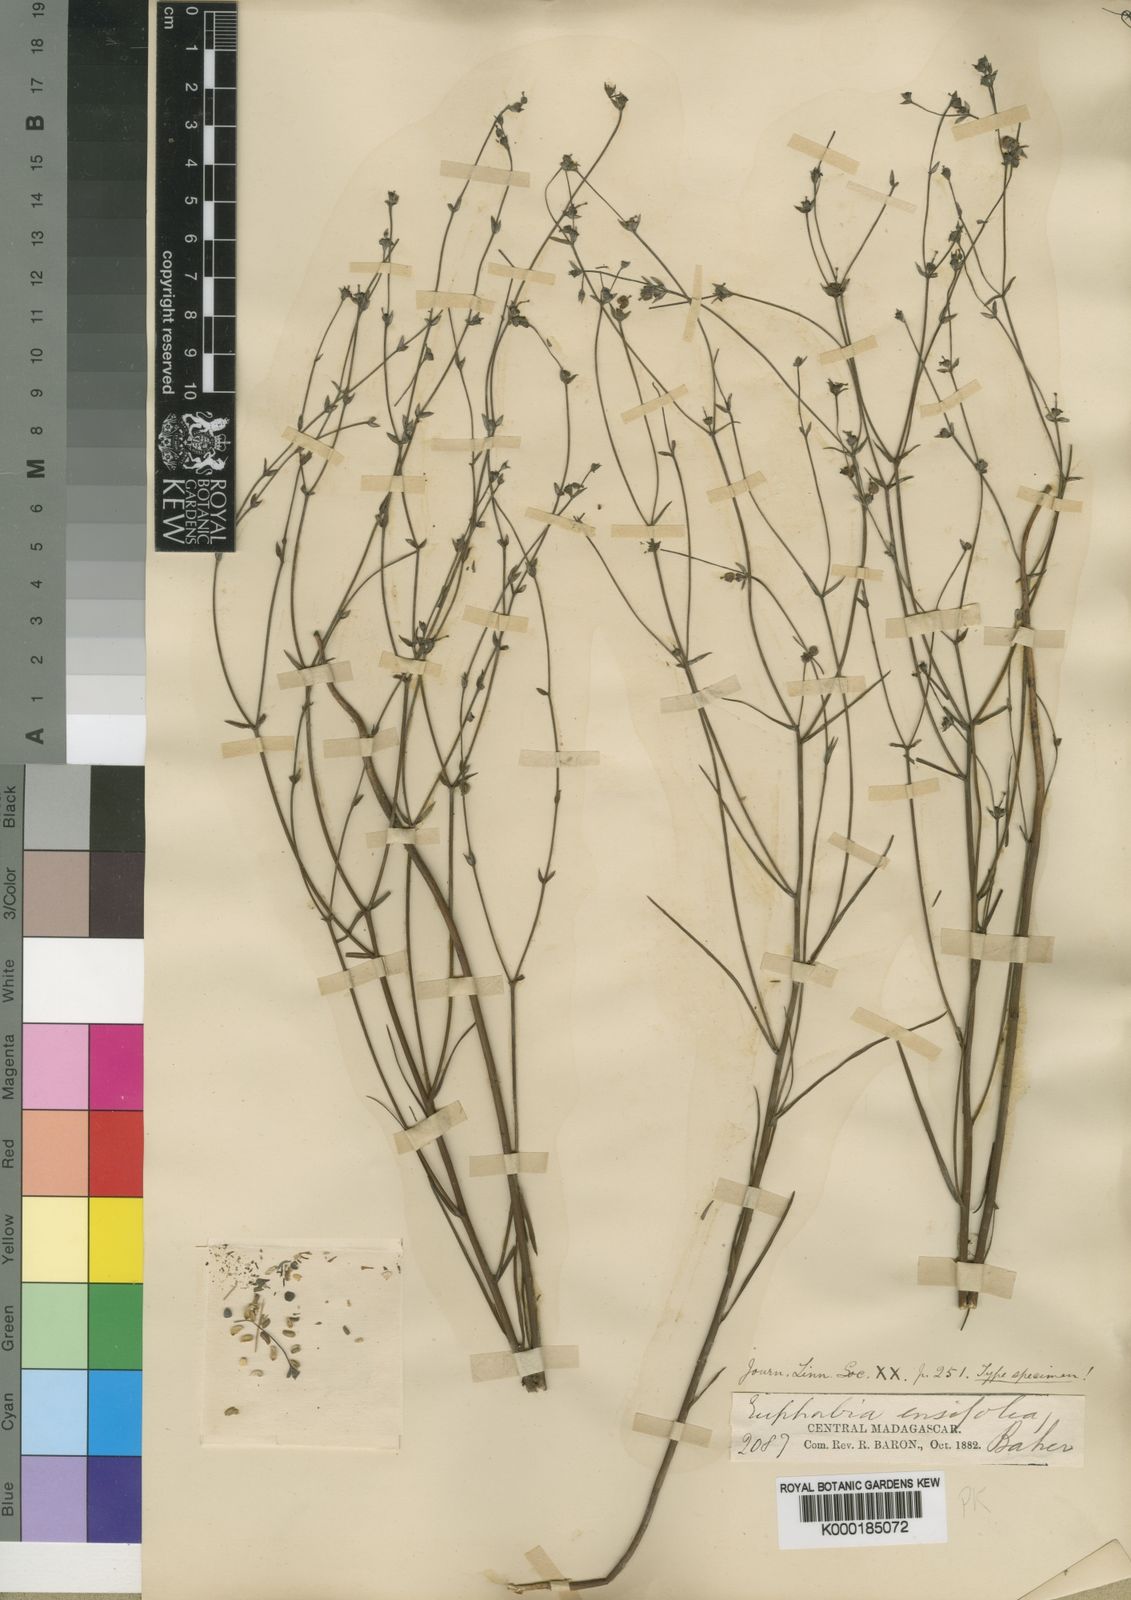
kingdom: Plantae
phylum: Tracheophyta
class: Magnoliopsida
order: Malpighiales
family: Euphorbiaceae
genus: Euphorbia
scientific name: Euphorbia ensifolia
